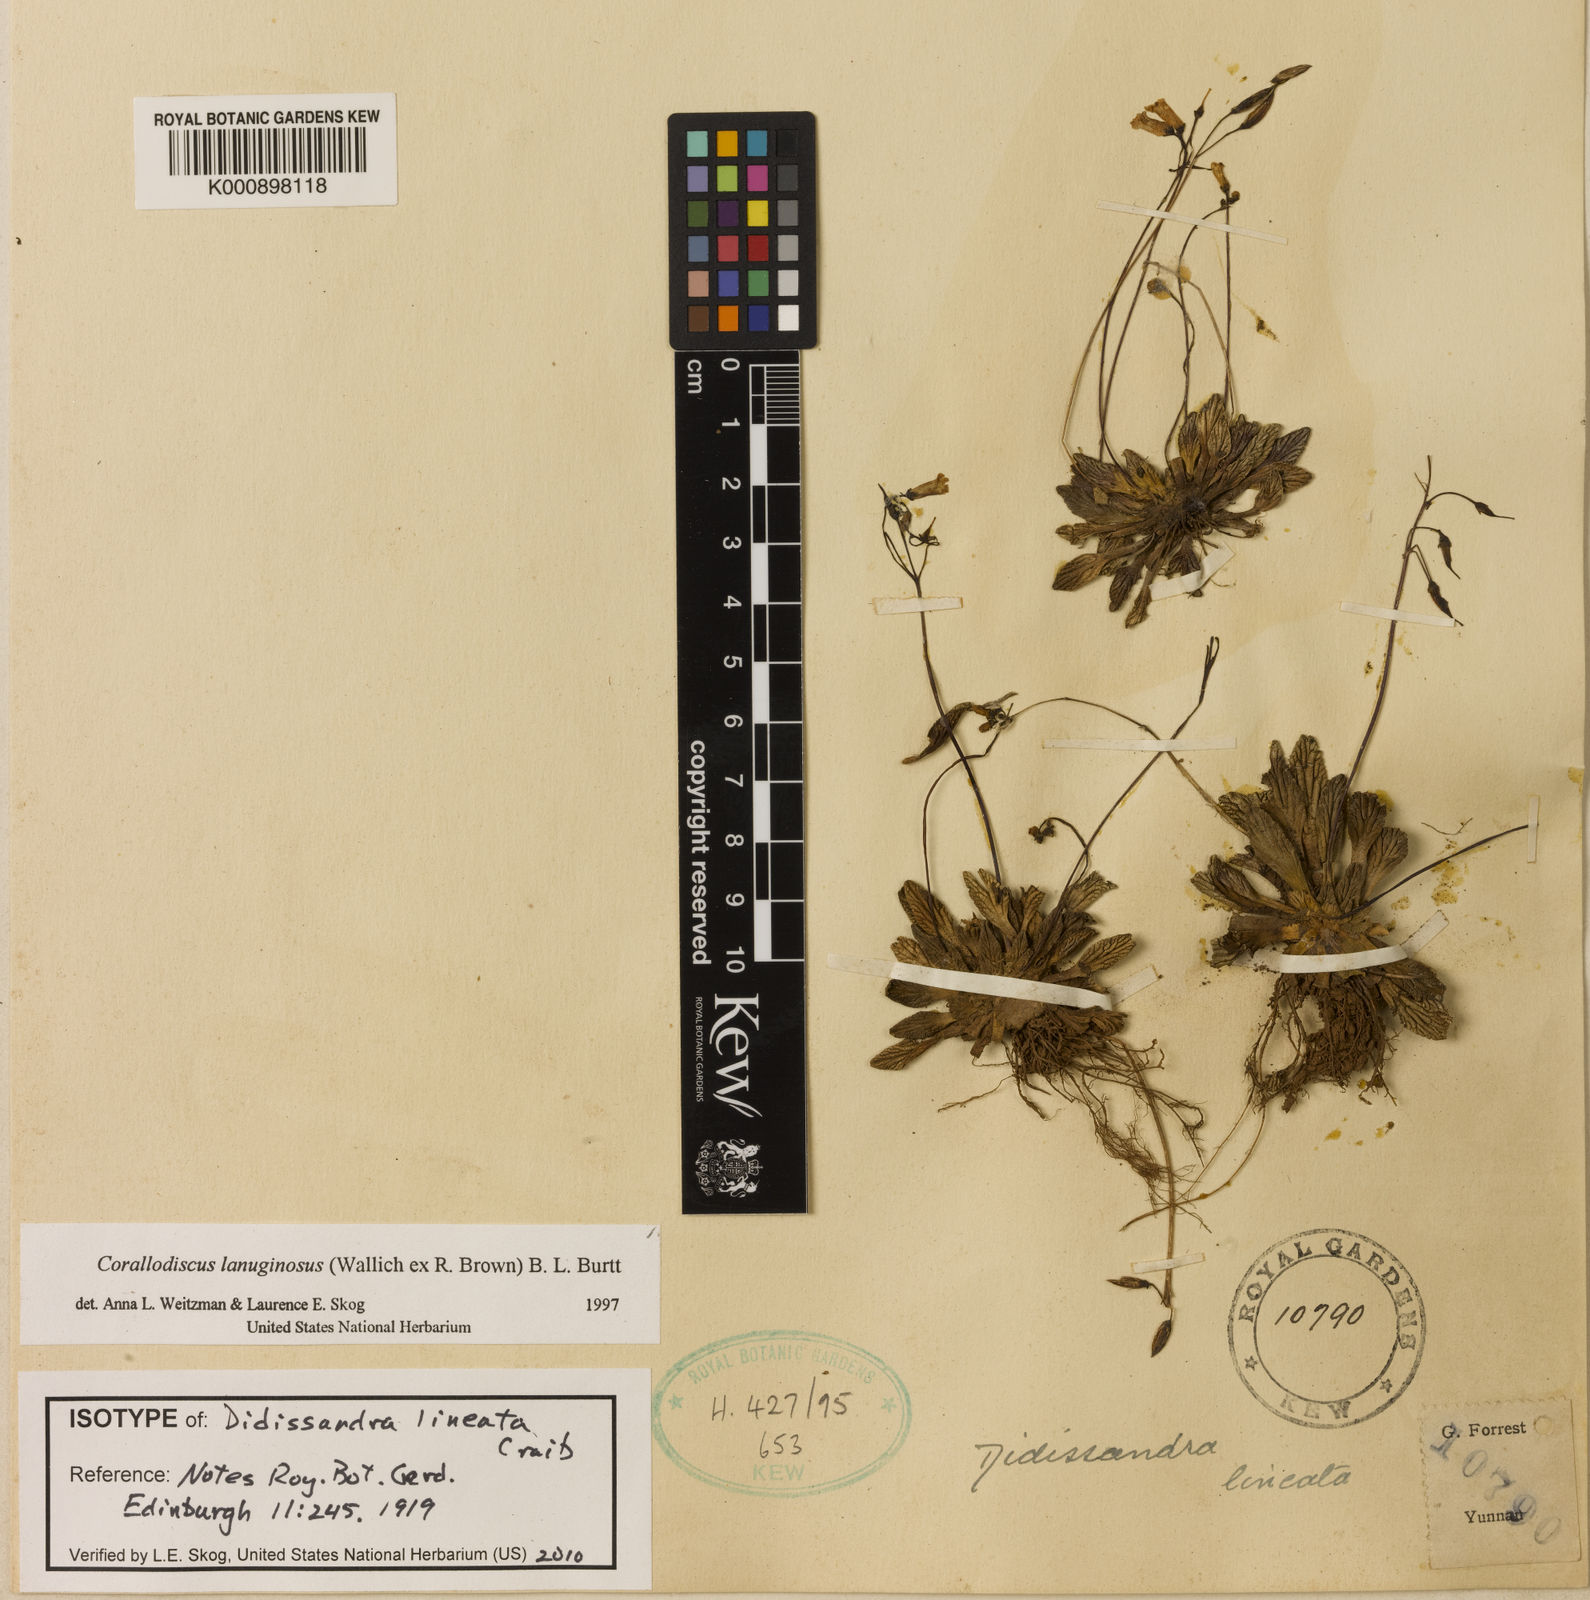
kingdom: Plantae
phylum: Tracheophyta
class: Magnoliopsida
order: Lamiales
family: Gesneriaceae
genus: Corallodiscus
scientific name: Corallodiscus lanuginosus
